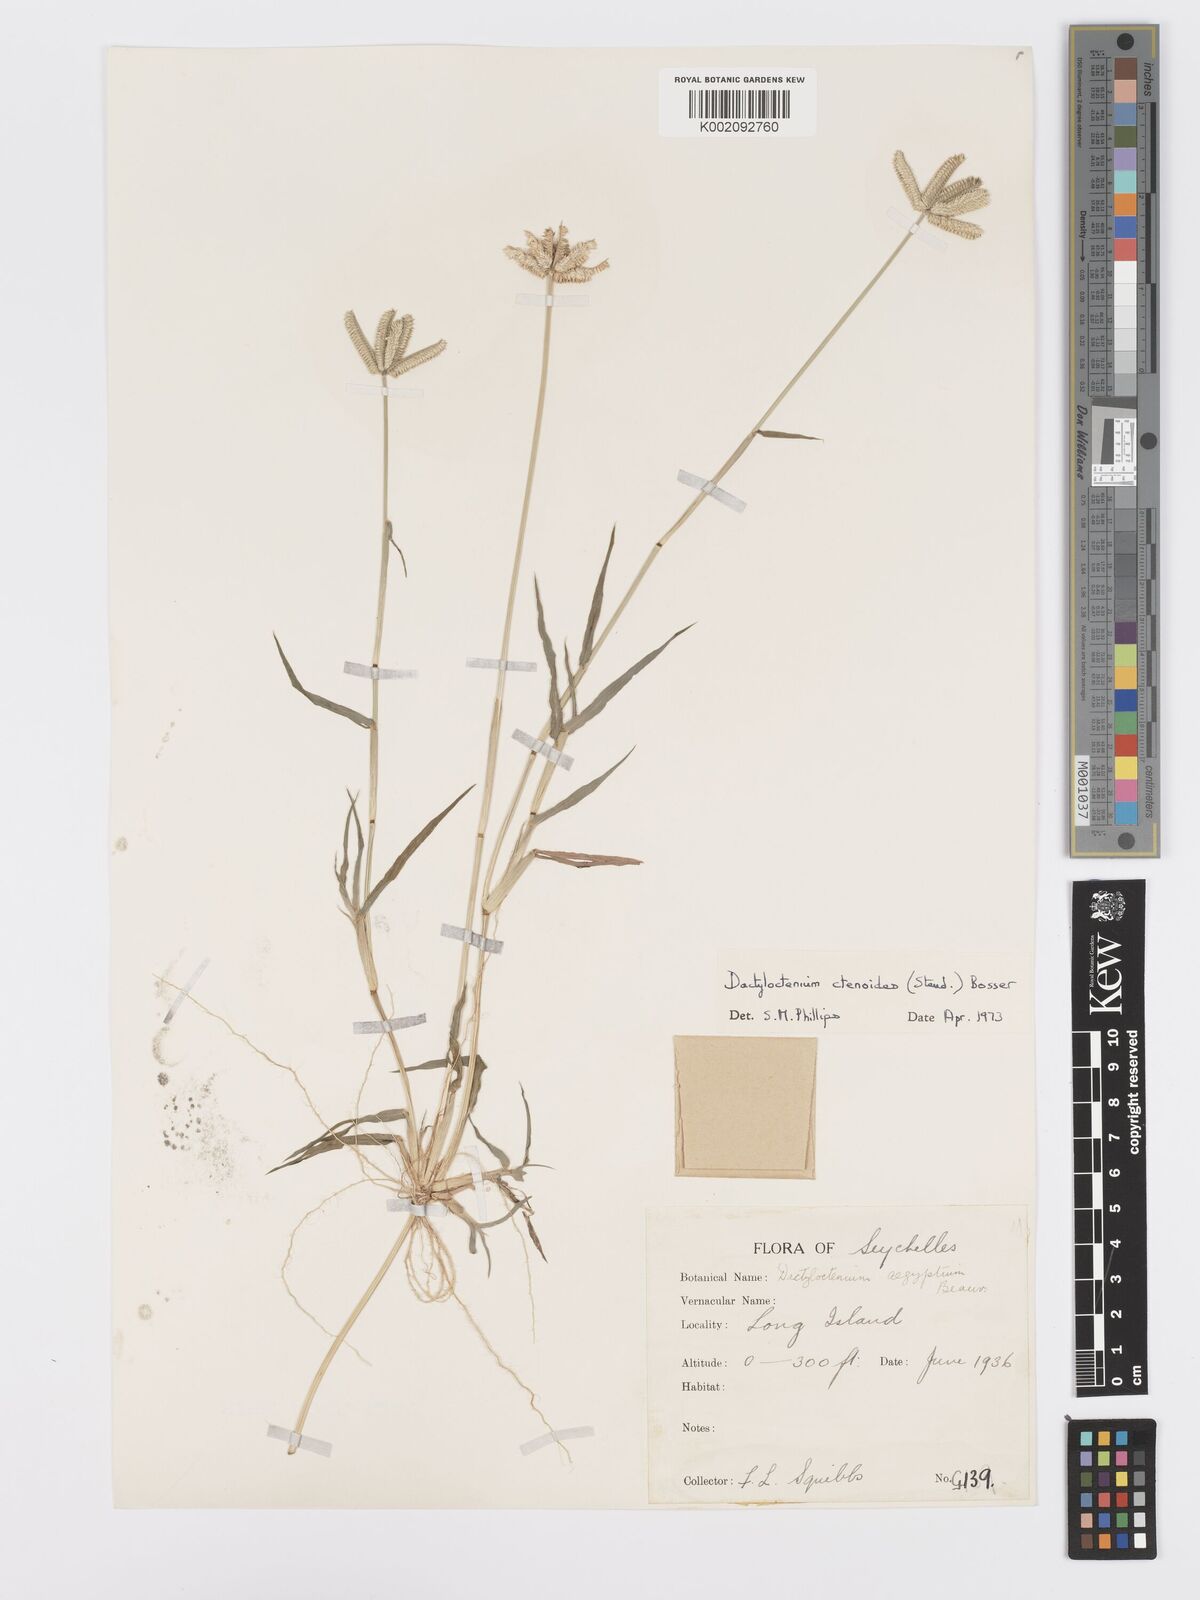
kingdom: Plantae
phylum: Tracheophyta
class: Liliopsida
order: Poales
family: Poaceae
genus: Dactyloctenium
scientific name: Dactyloctenium ctenoides
